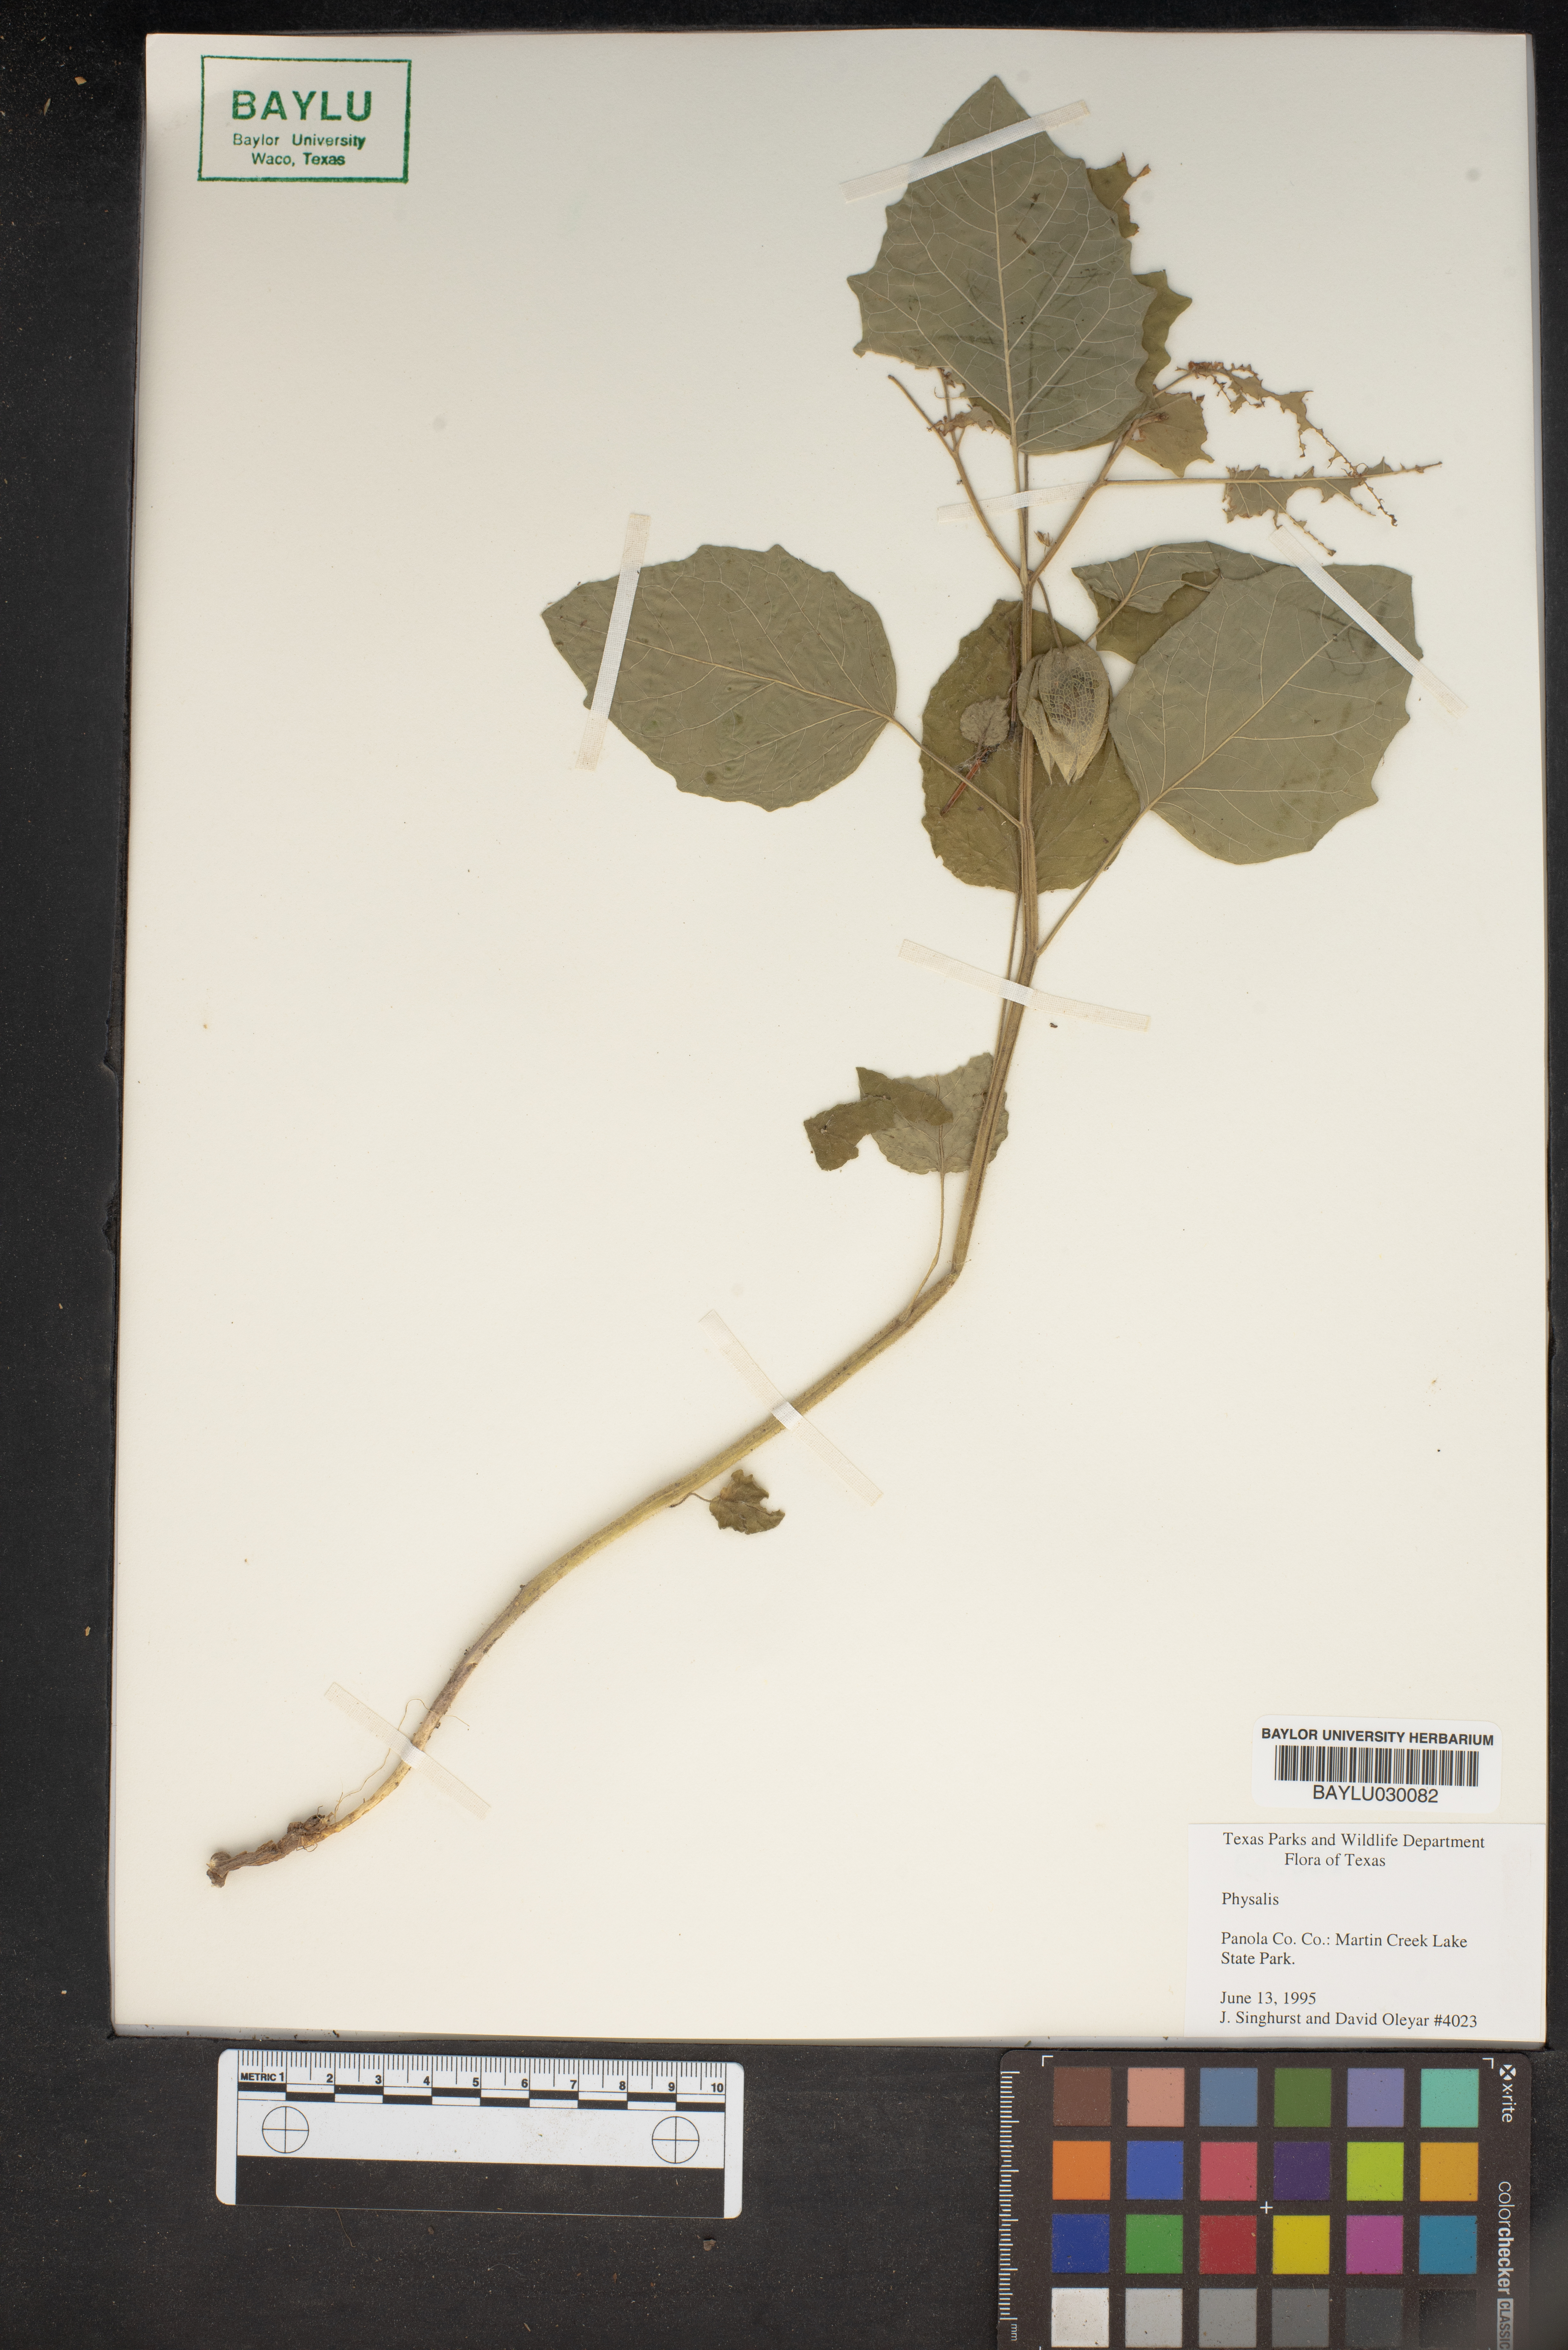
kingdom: Plantae
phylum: Tracheophyta
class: Magnoliopsida
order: Solanales
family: Solanaceae
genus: Physalis
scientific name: Physalis
